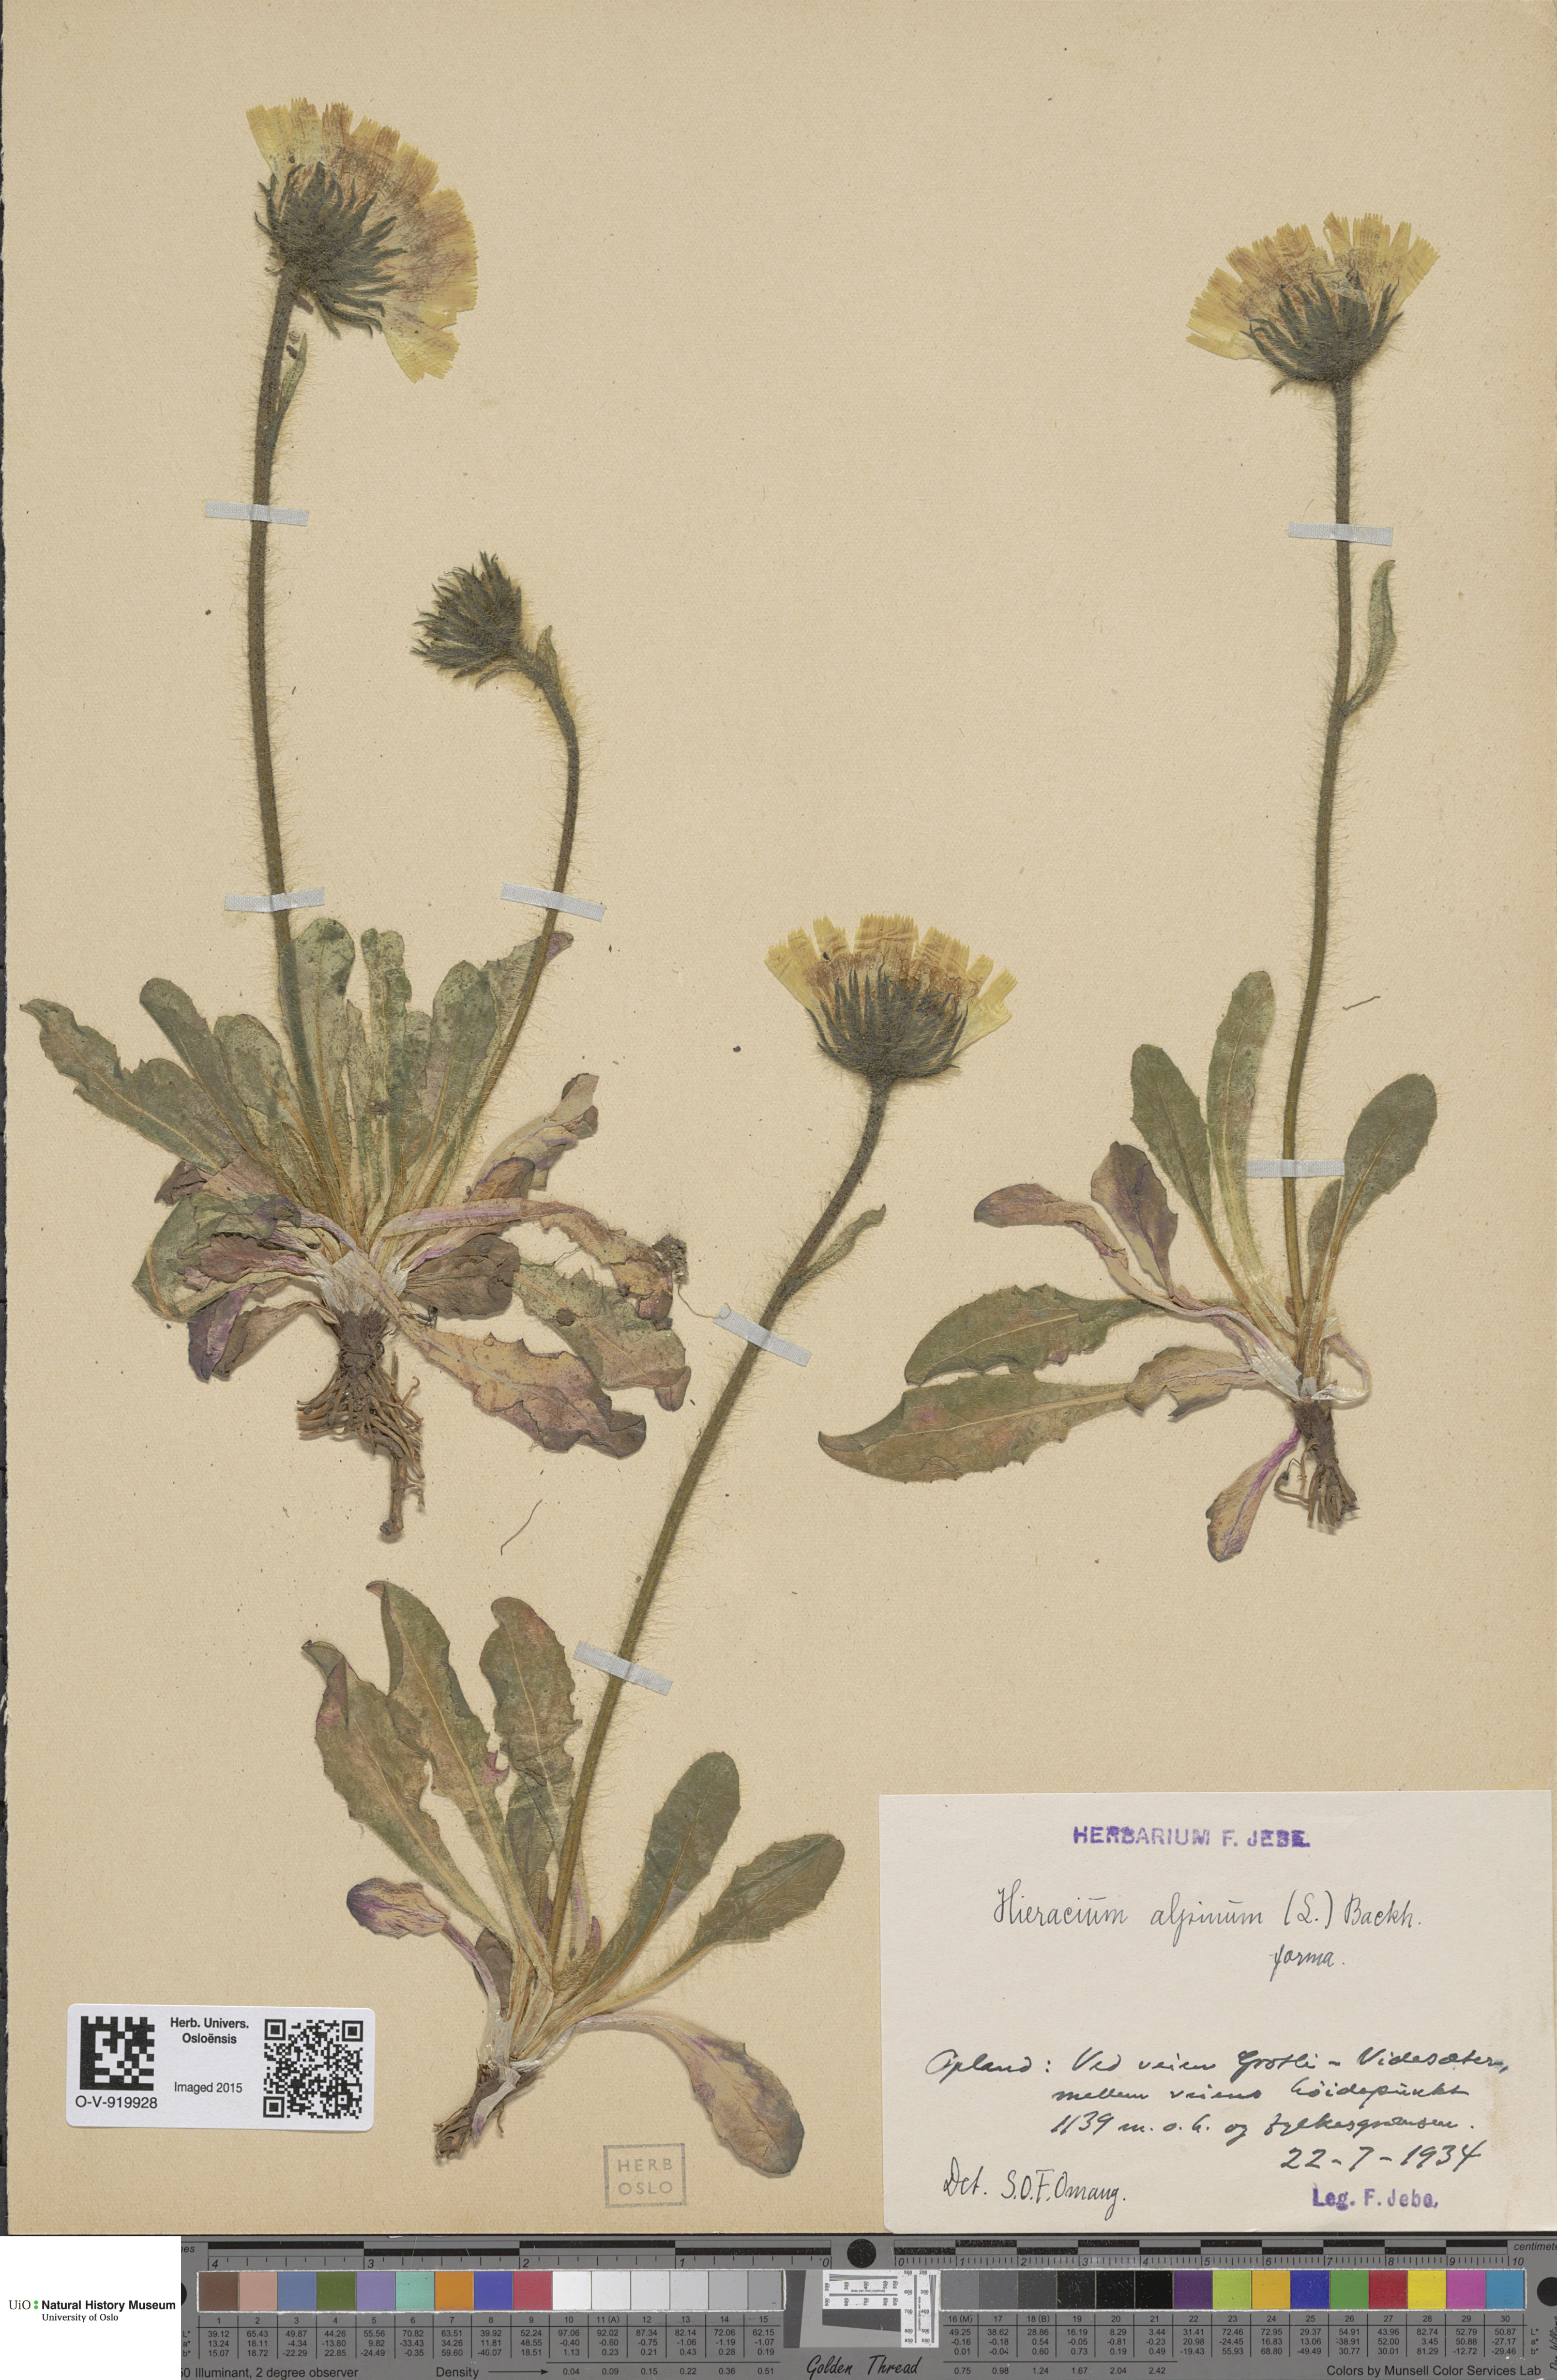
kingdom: Plantae
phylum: Tracheophyta
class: Magnoliopsida
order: Asterales
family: Asteraceae
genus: Hieracium
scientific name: Hieracium alpinum
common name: Alpine hawkweed
